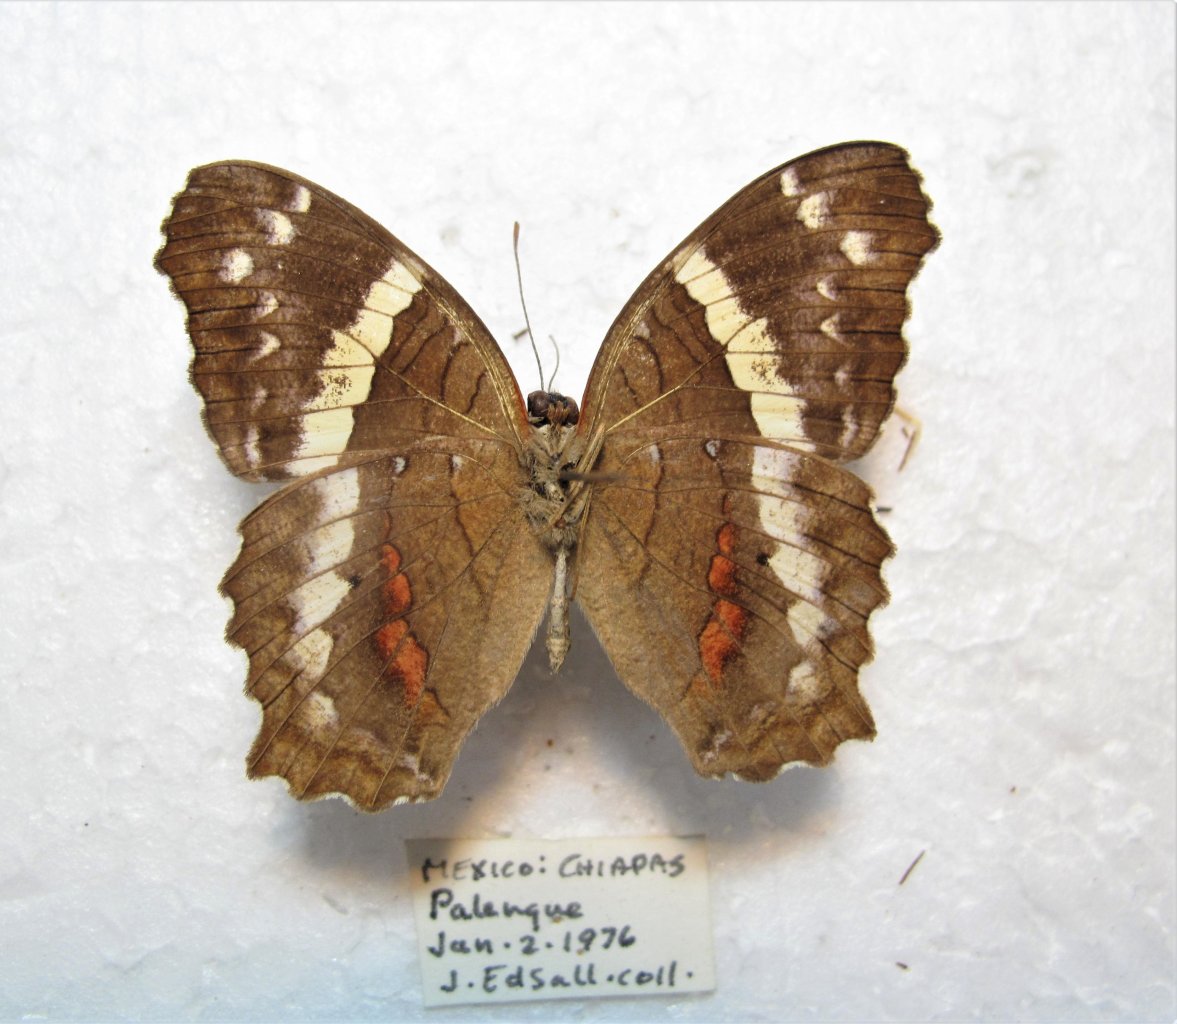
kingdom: Animalia
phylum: Arthropoda
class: Insecta
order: Lepidoptera
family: Nymphalidae
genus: Anartia
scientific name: Anartia fatima
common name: Banded Peacock
